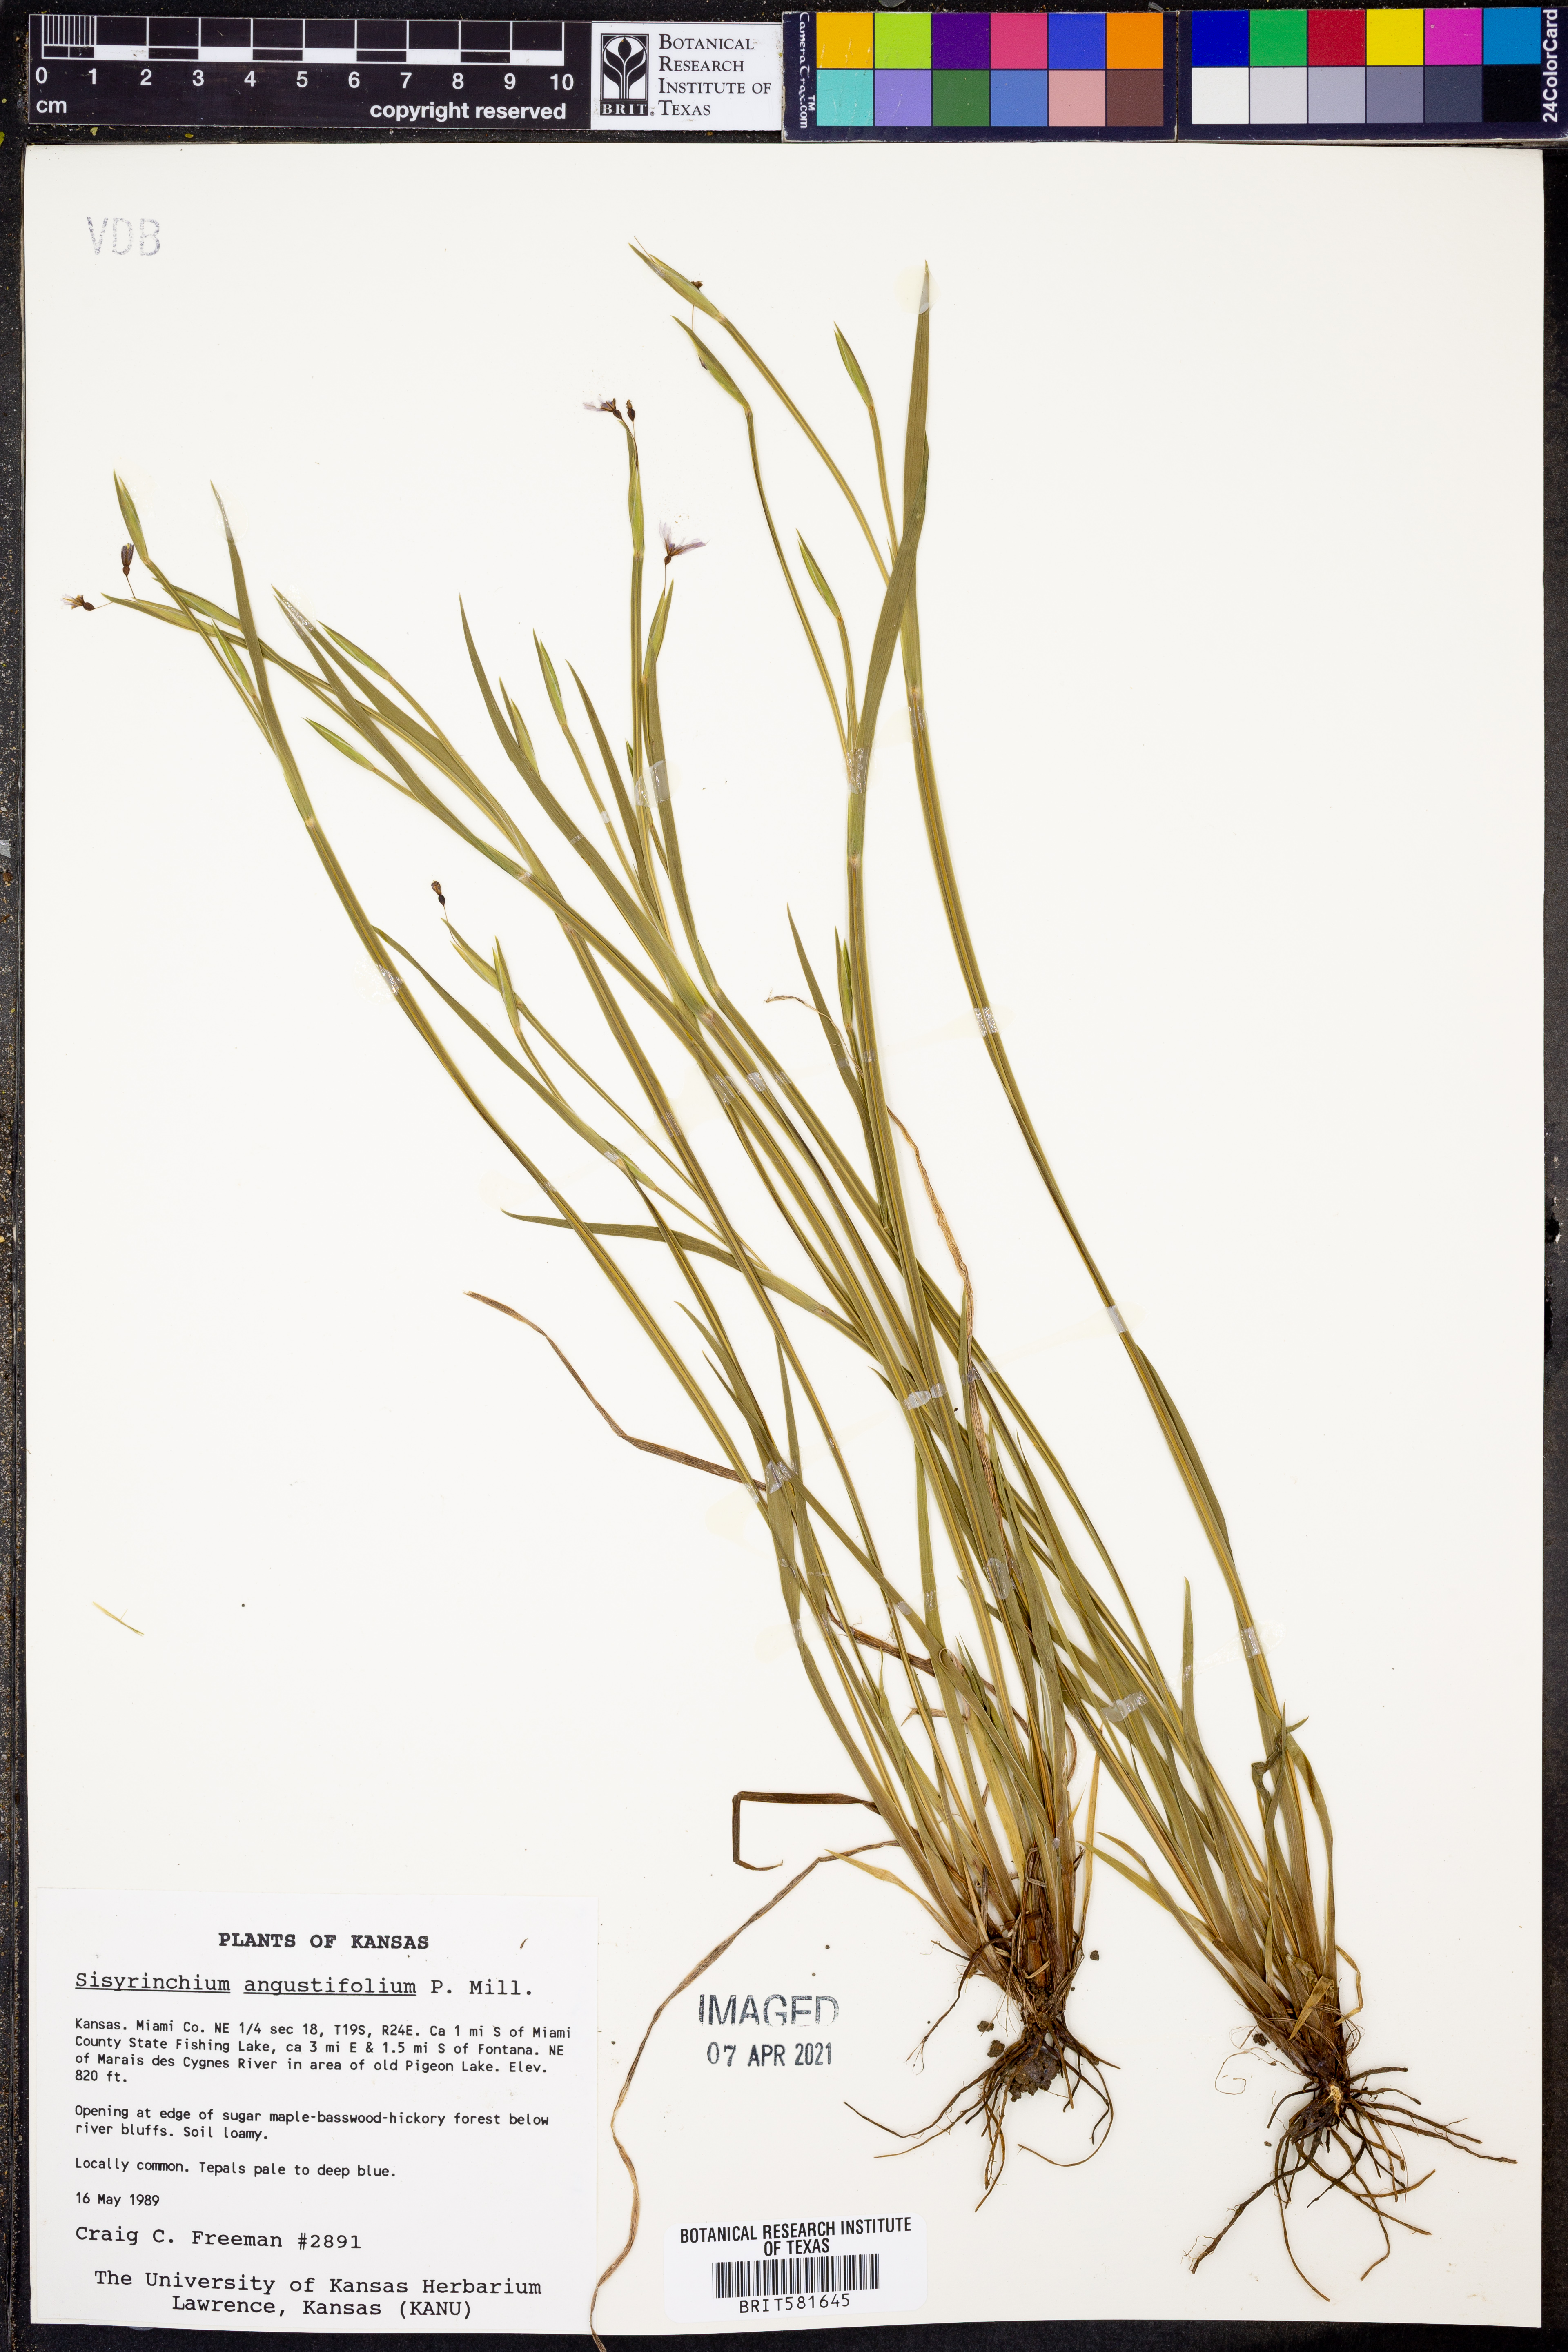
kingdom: Plantae
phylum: Tracheophyta
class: Liliopsida
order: Asparagales
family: Iridaceae
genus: Sisyrinchium
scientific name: Sisyrinchium angustifolium
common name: Narrow-leaf blue-eyed-grass
